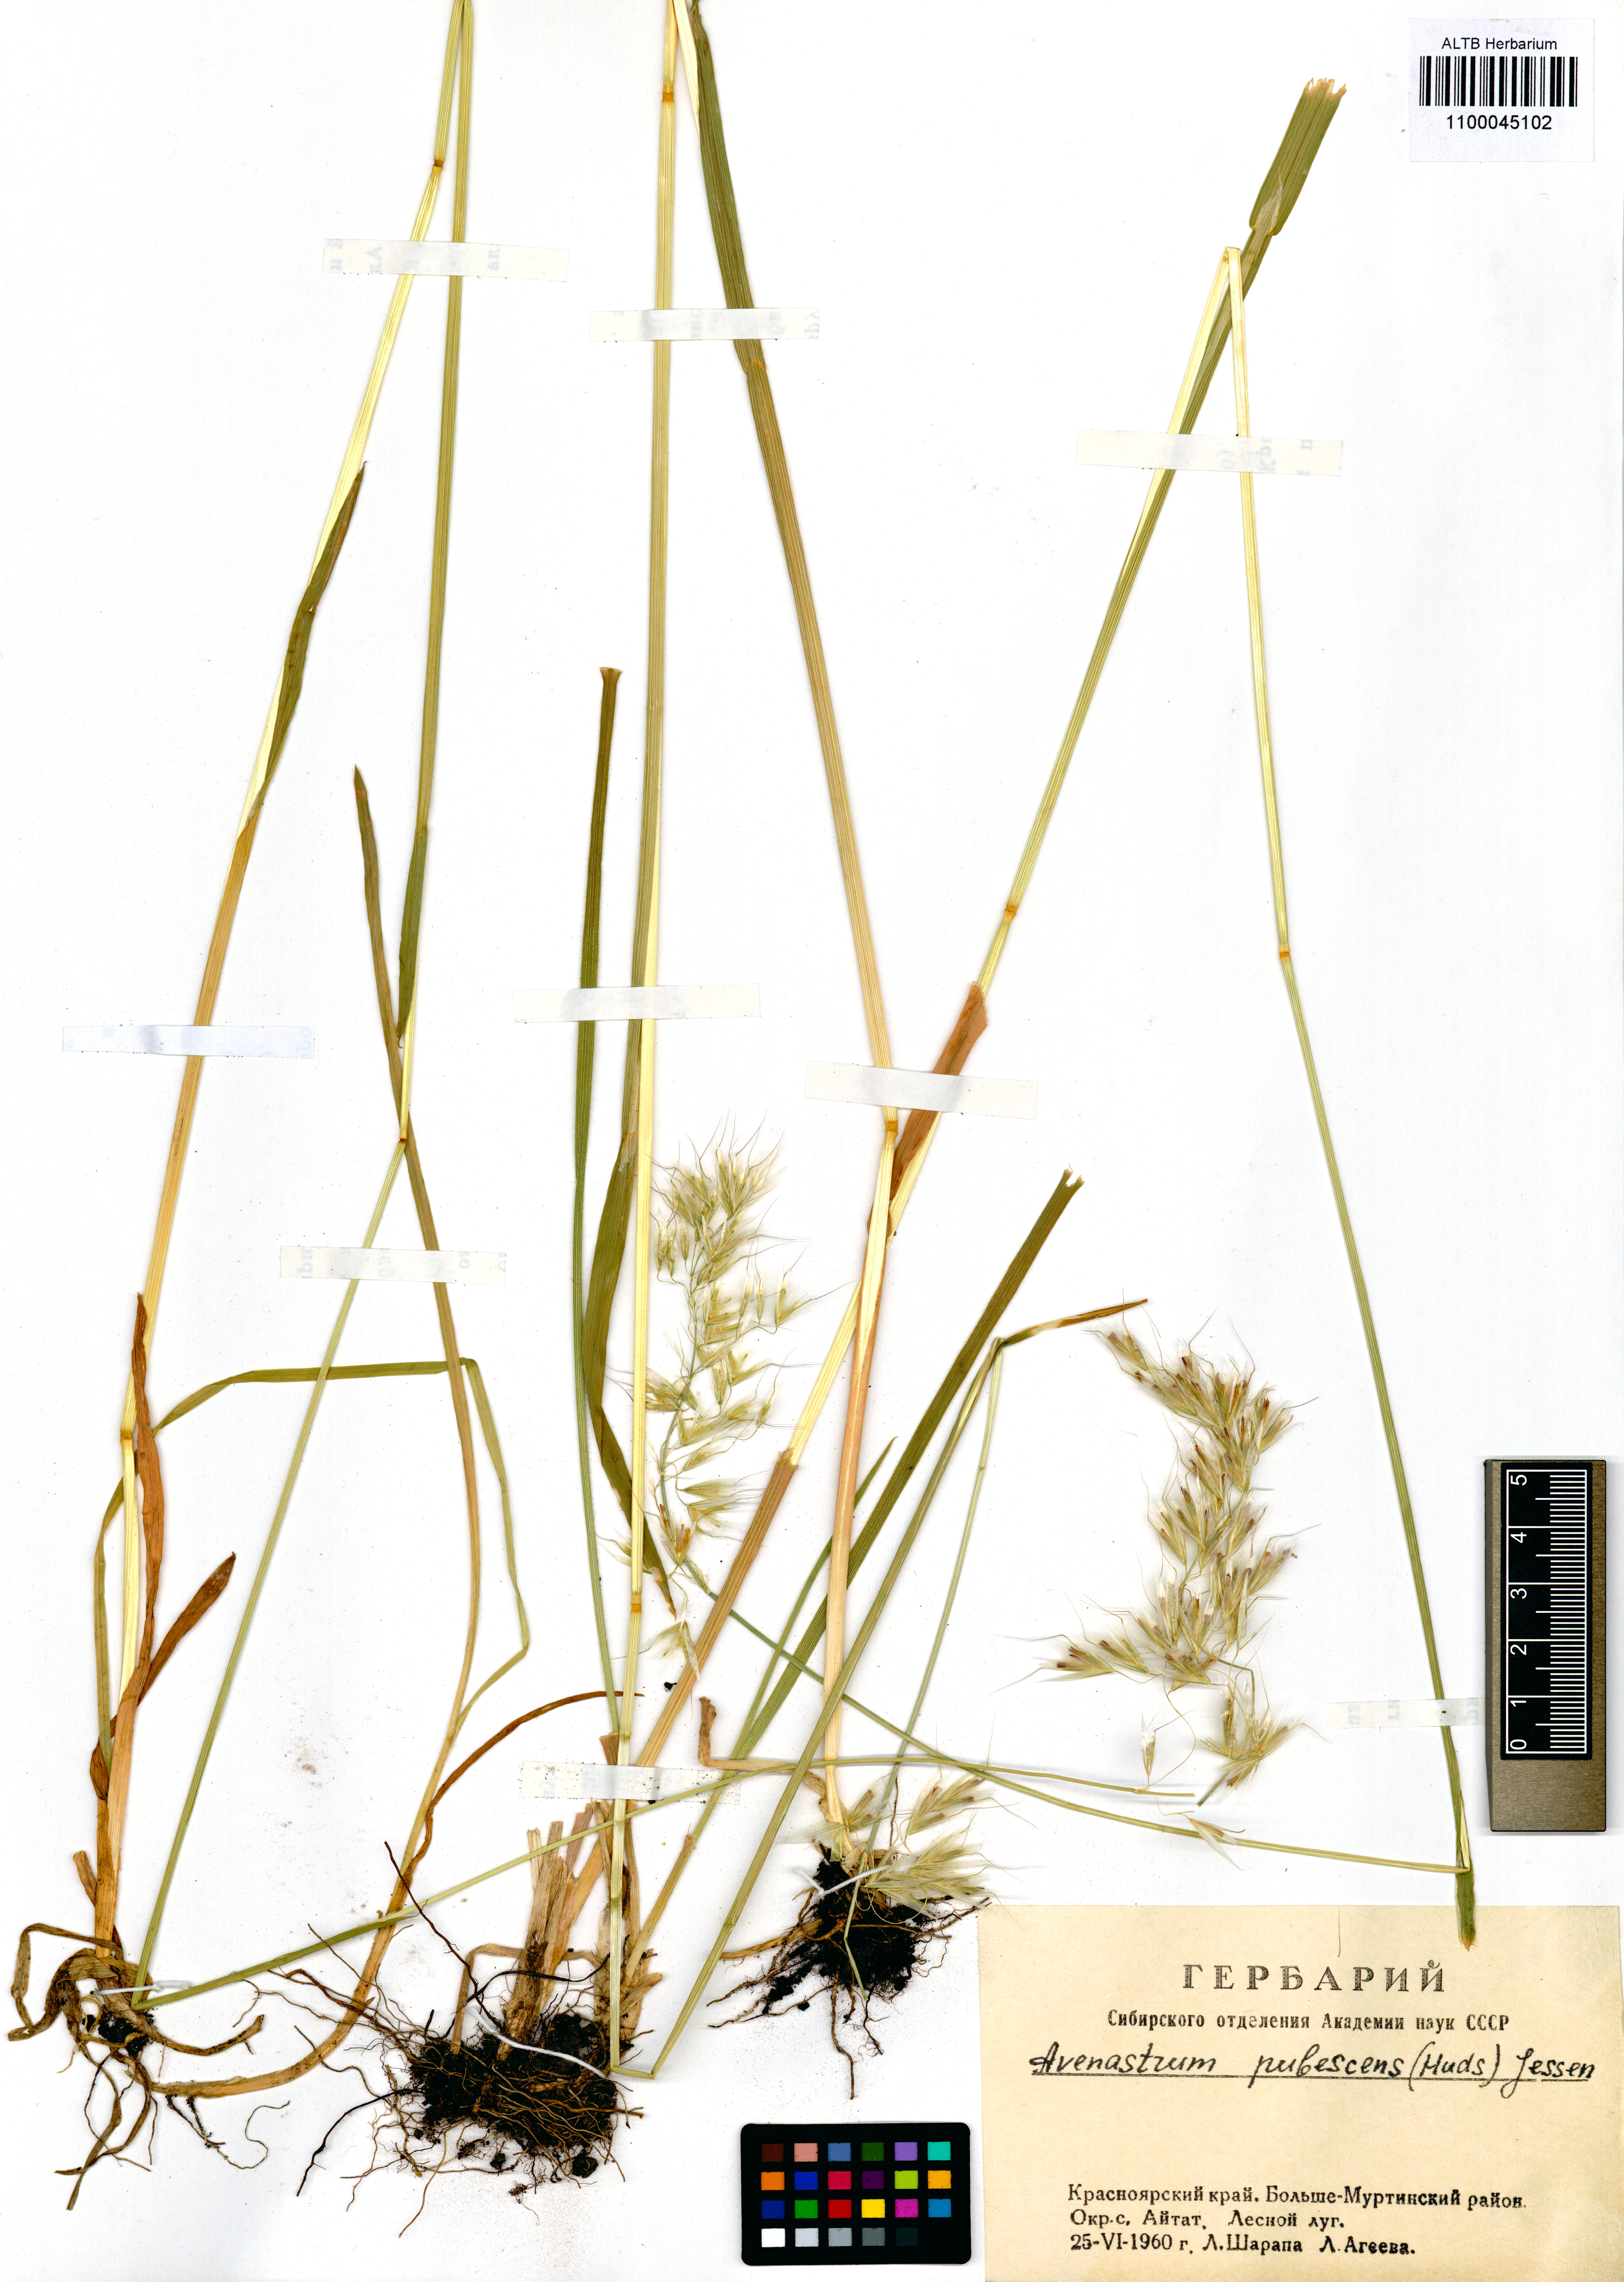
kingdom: Plantae
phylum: Tracheophyta
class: Liliopsida
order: Poales
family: Poaceae
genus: Avenula
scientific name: Avenula pubescens
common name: Downy alpine oatgrass
